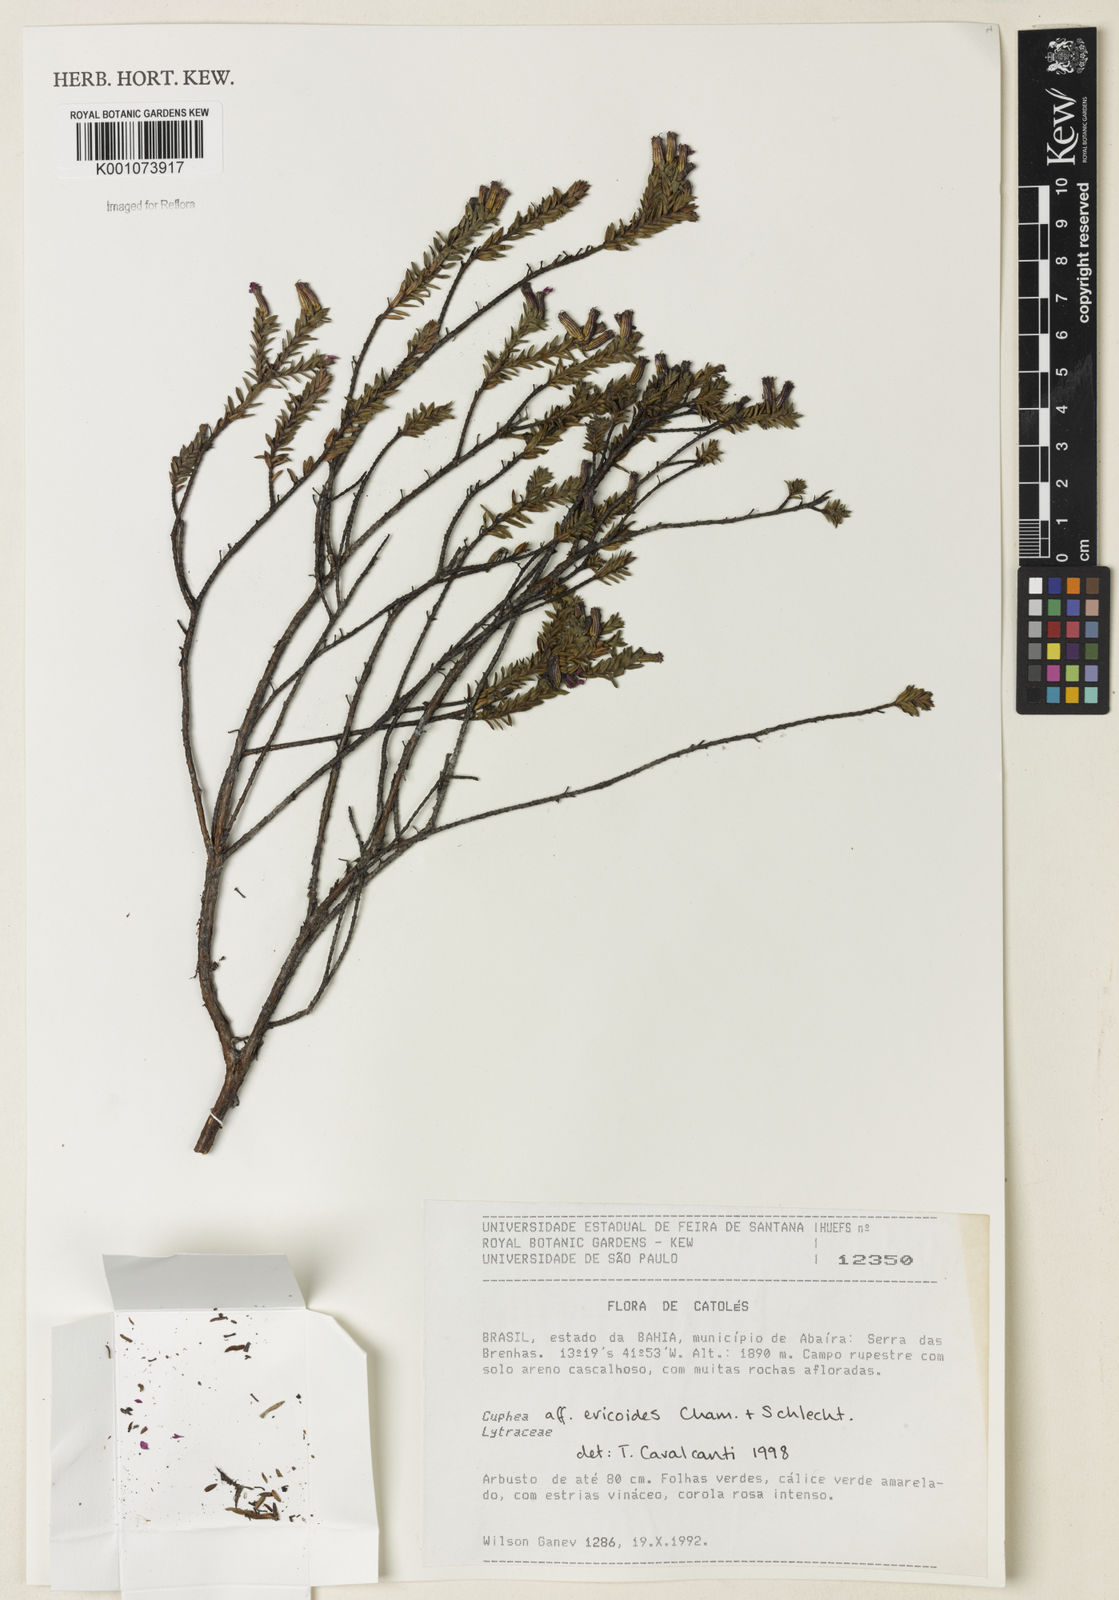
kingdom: Plantae
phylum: Tracheophyta
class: Magnoliopsida
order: Myrtales
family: Lythraceae
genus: Cuphea
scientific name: Cuphea ericoides
